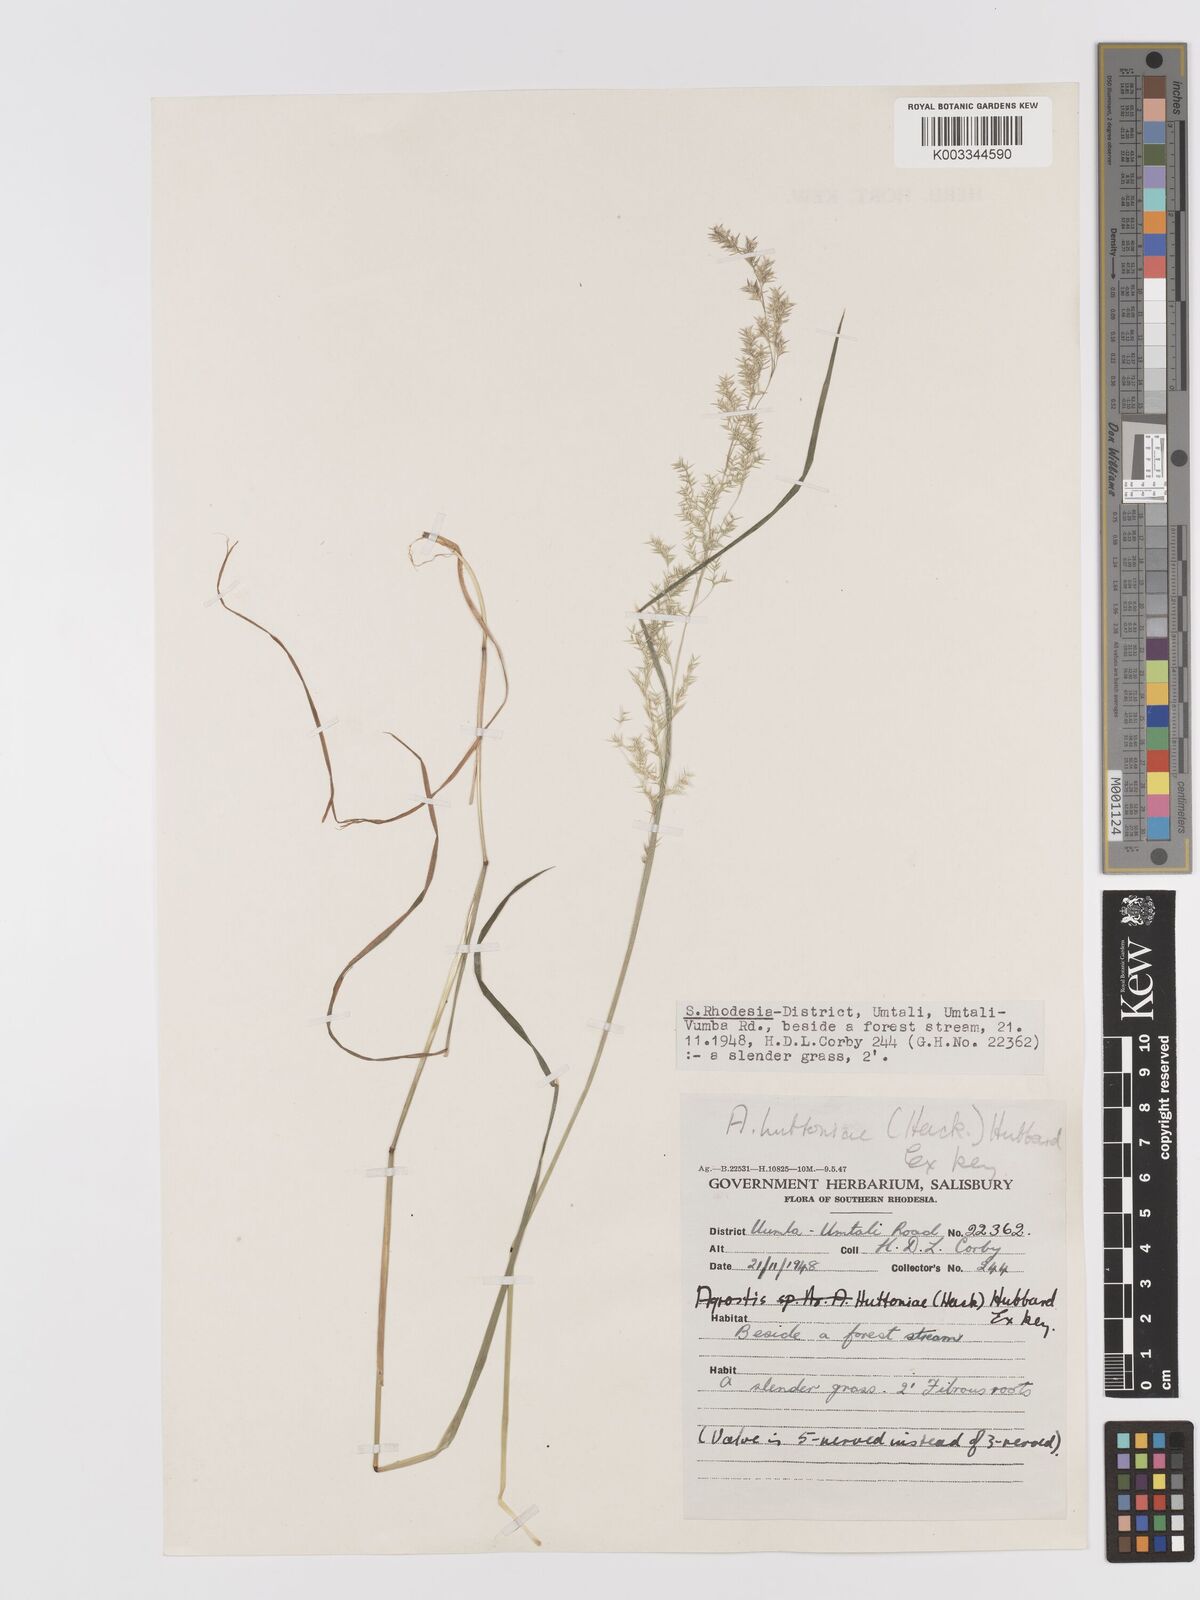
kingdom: Plantae
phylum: Tracheophyta
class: Liliopsida
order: Poales
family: Poaceae
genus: Lachnagrostis
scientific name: Lachnagrostis lachnantha
